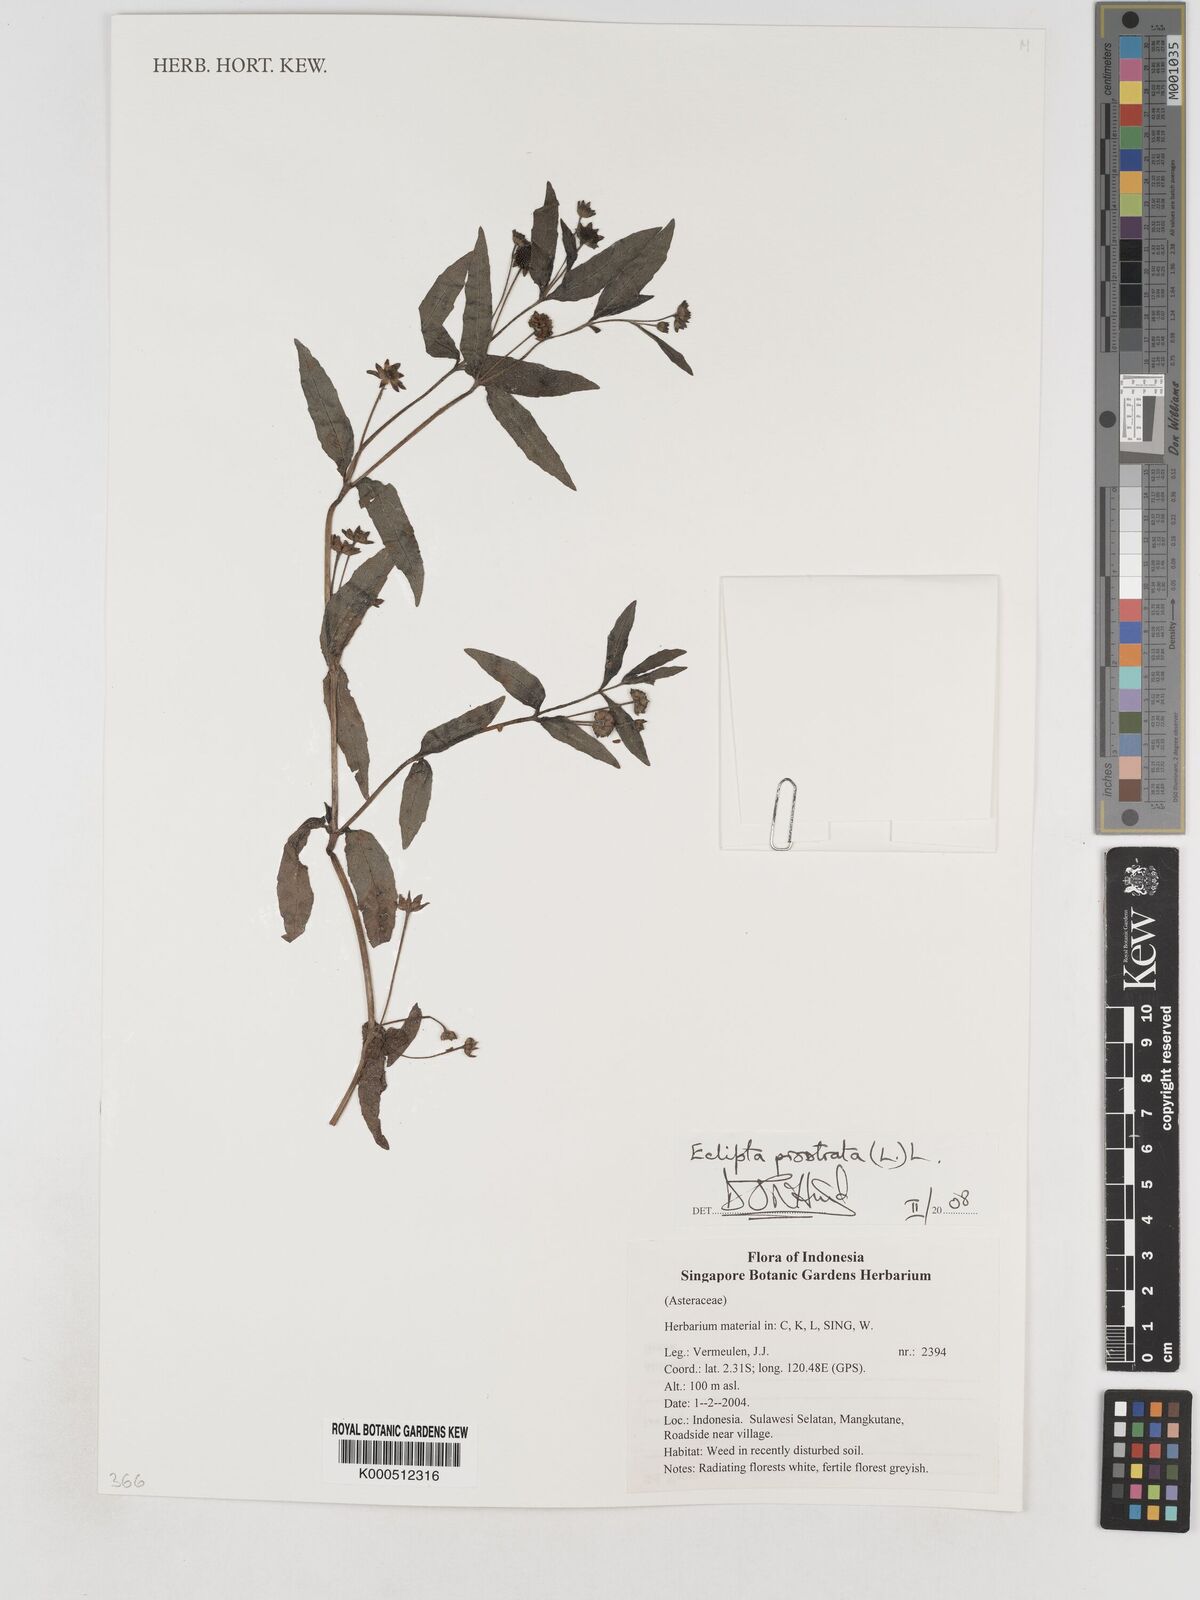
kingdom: Plantae
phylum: Tracheophyta
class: Magnoliopsida
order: Asterales
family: Asteraceae
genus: Eclipta
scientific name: Eclipta prostrata
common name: False daisy
